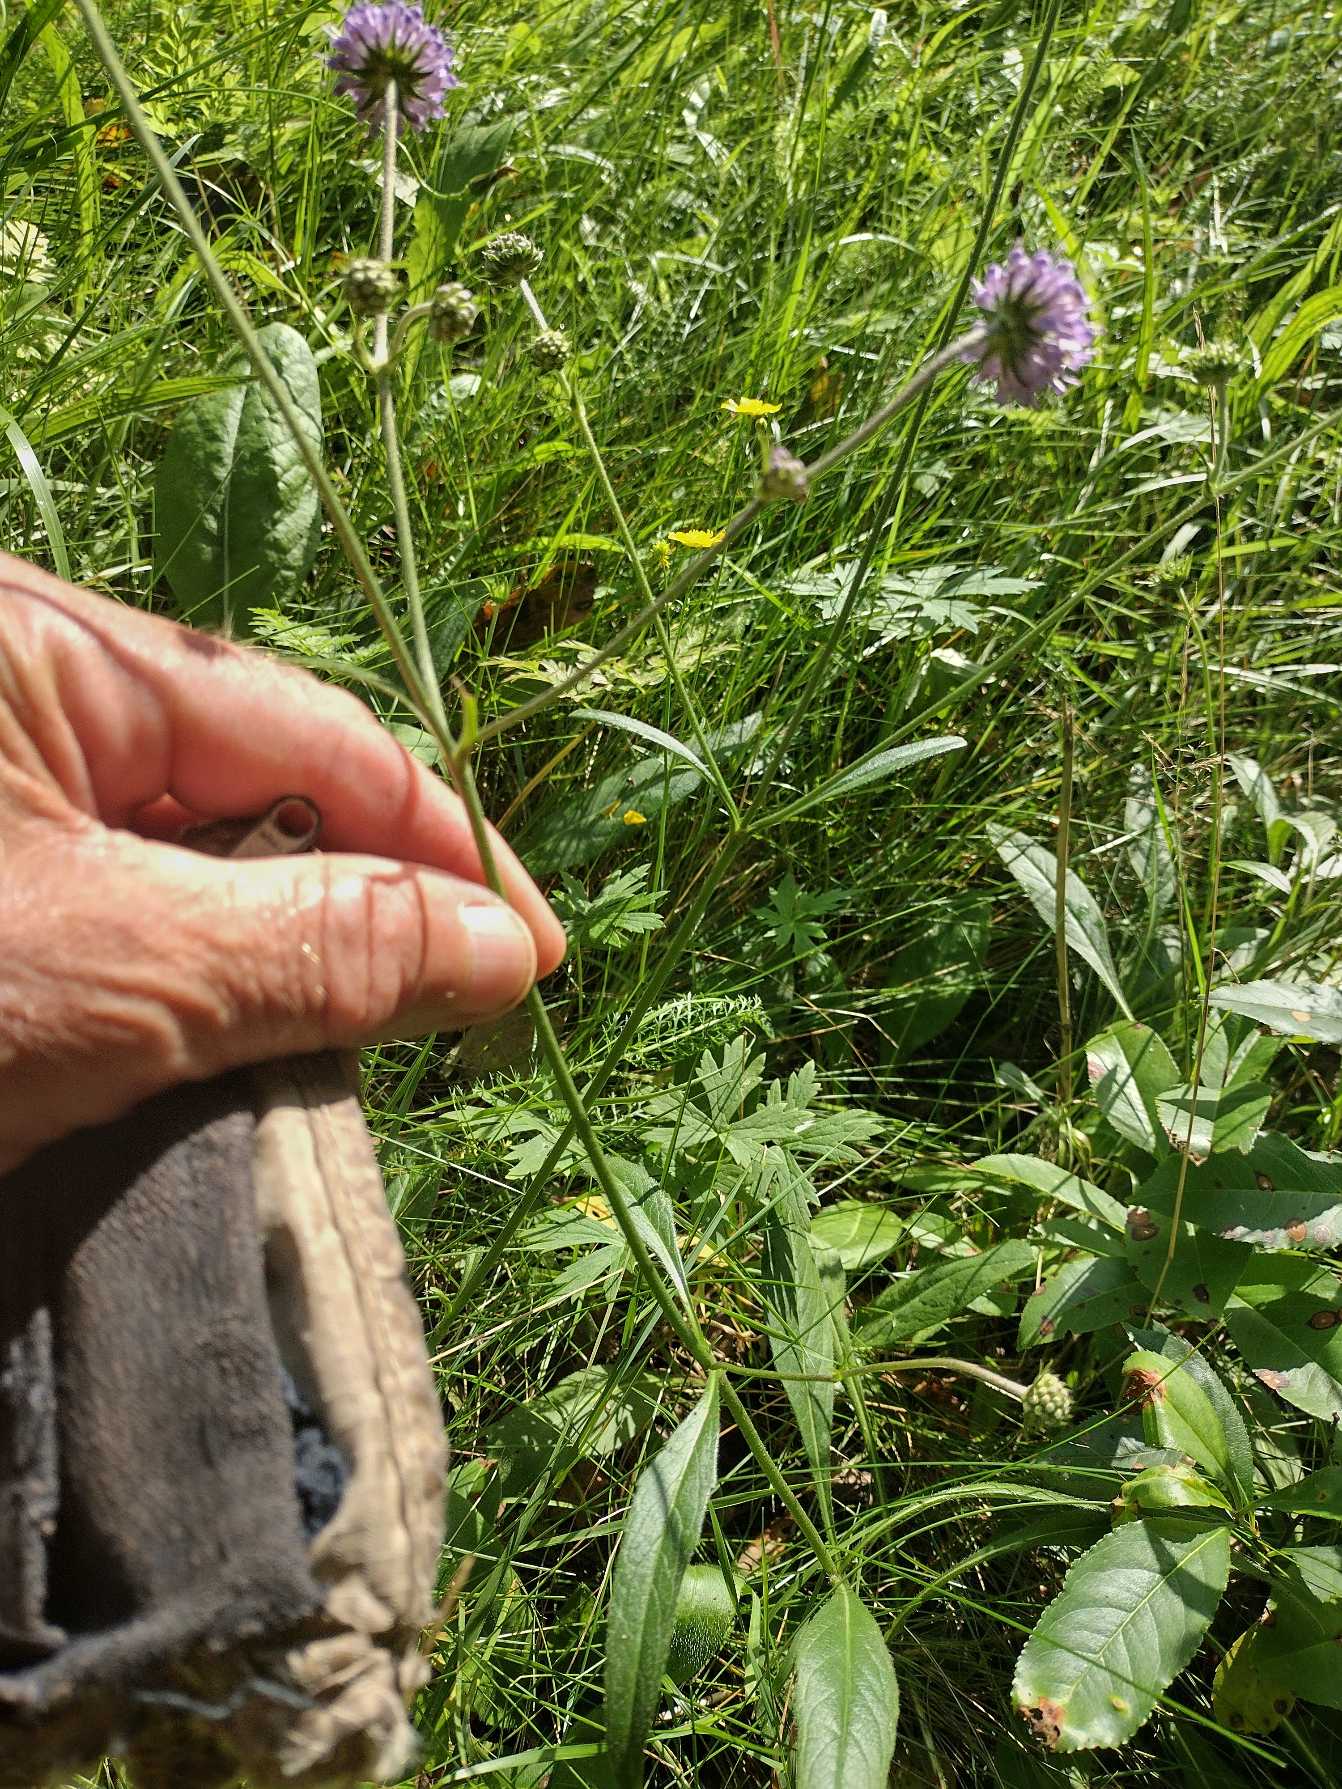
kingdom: Plantae
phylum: Tracheophyta
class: Magnoliopsida
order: Dipsacales
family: Caprifoliaceae
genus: Succisa
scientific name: Succisa pratensis
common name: Djævelsbid
